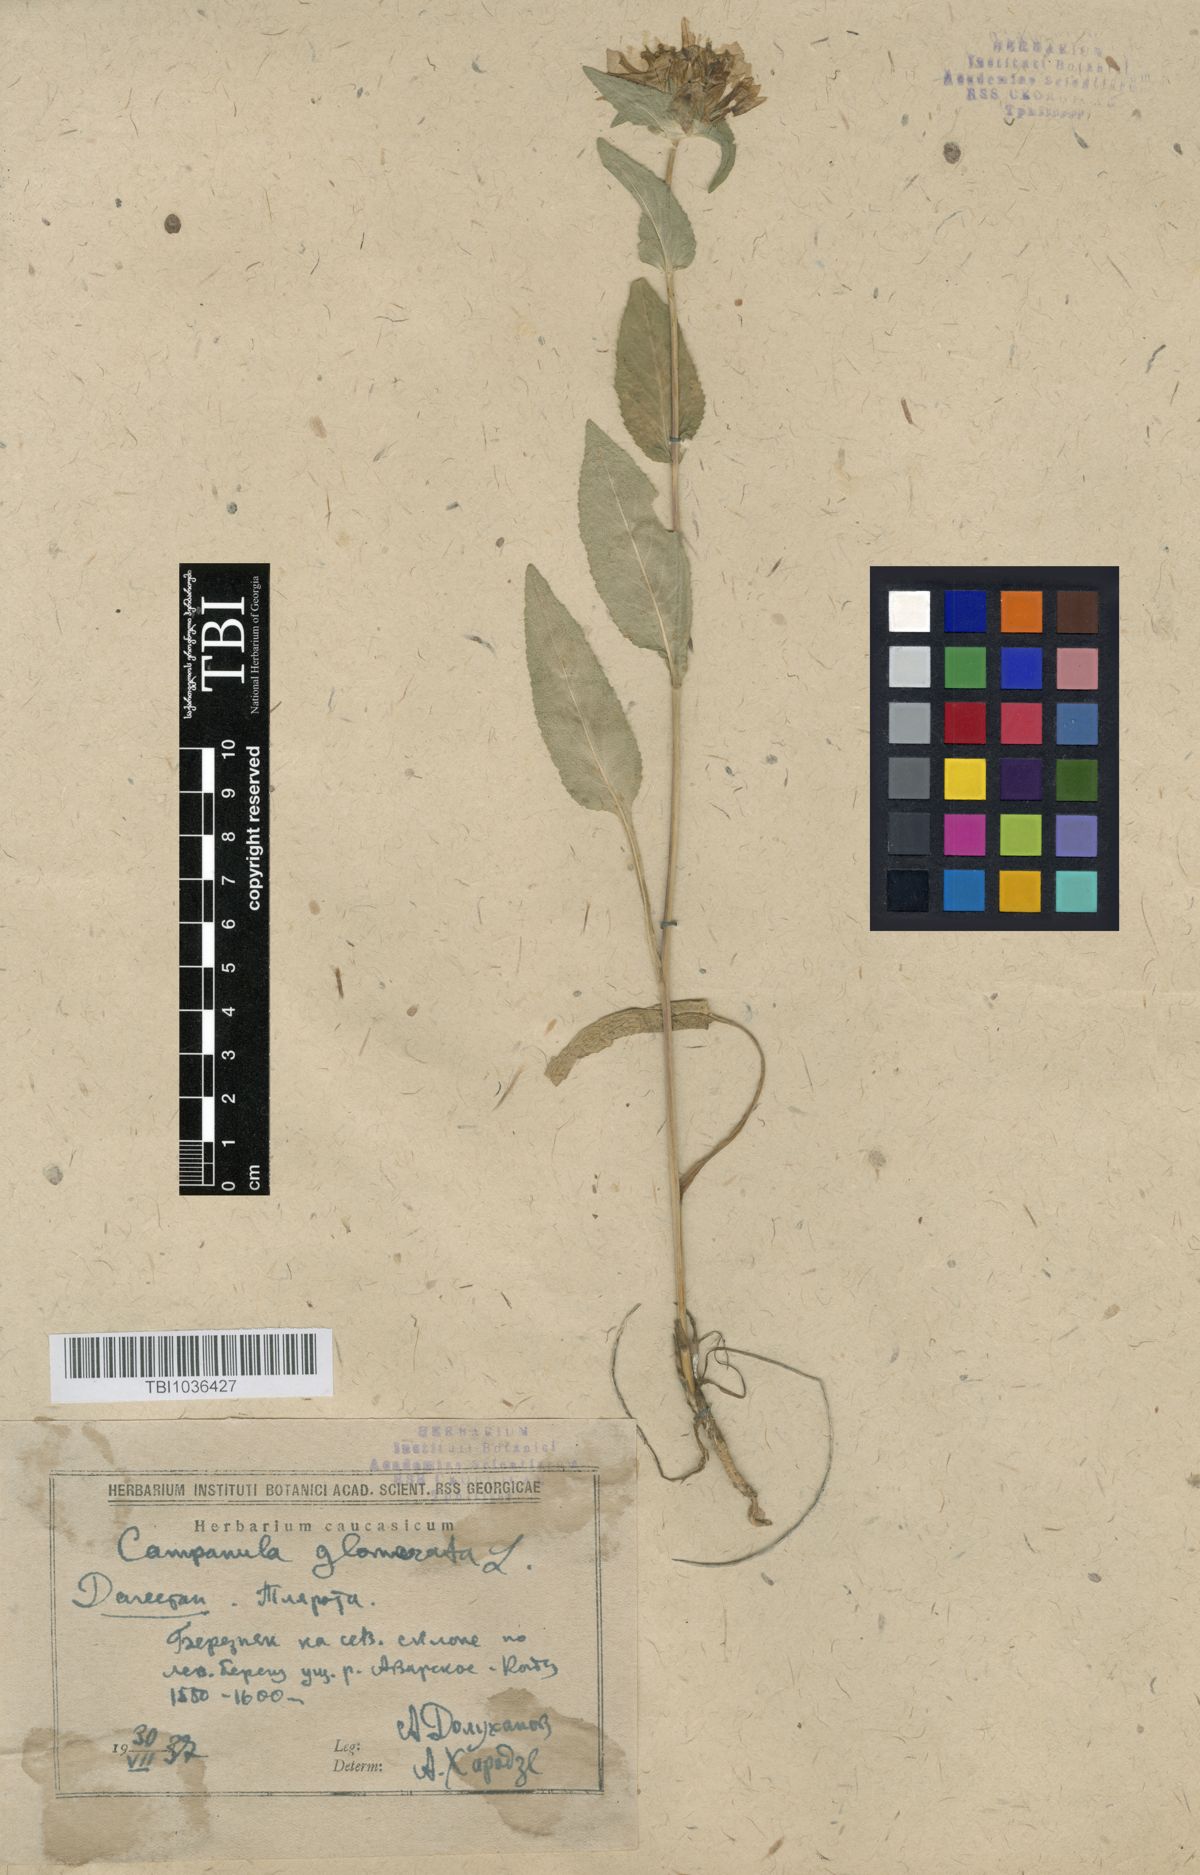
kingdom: Plantae
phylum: Tracheophyta
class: Magnoliopsida
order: Asterales
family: Campanulaceae
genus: Campanula
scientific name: Campanula glomerata
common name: Clustered bellflower
